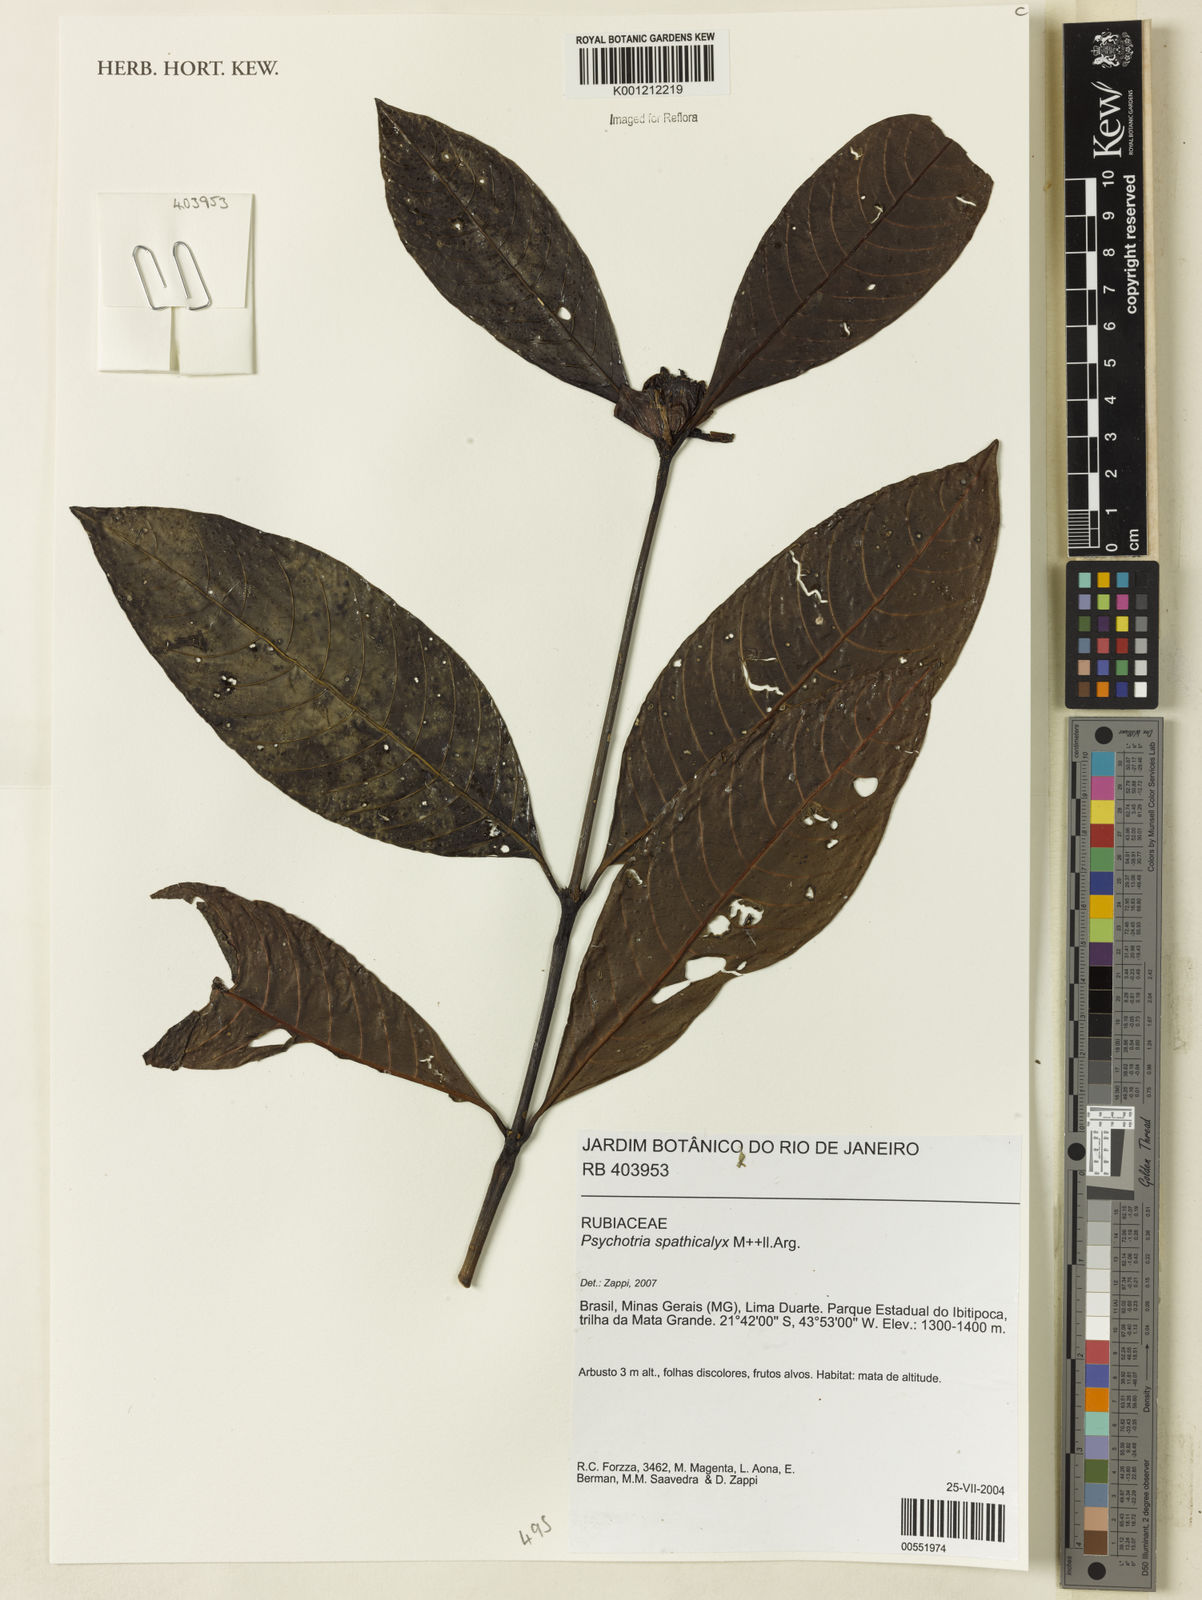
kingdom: Plantae
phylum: Tracheophyta
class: Magnoliopsida
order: Gentianales
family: Rubiaceae
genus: Psychotria
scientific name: Psychotria
